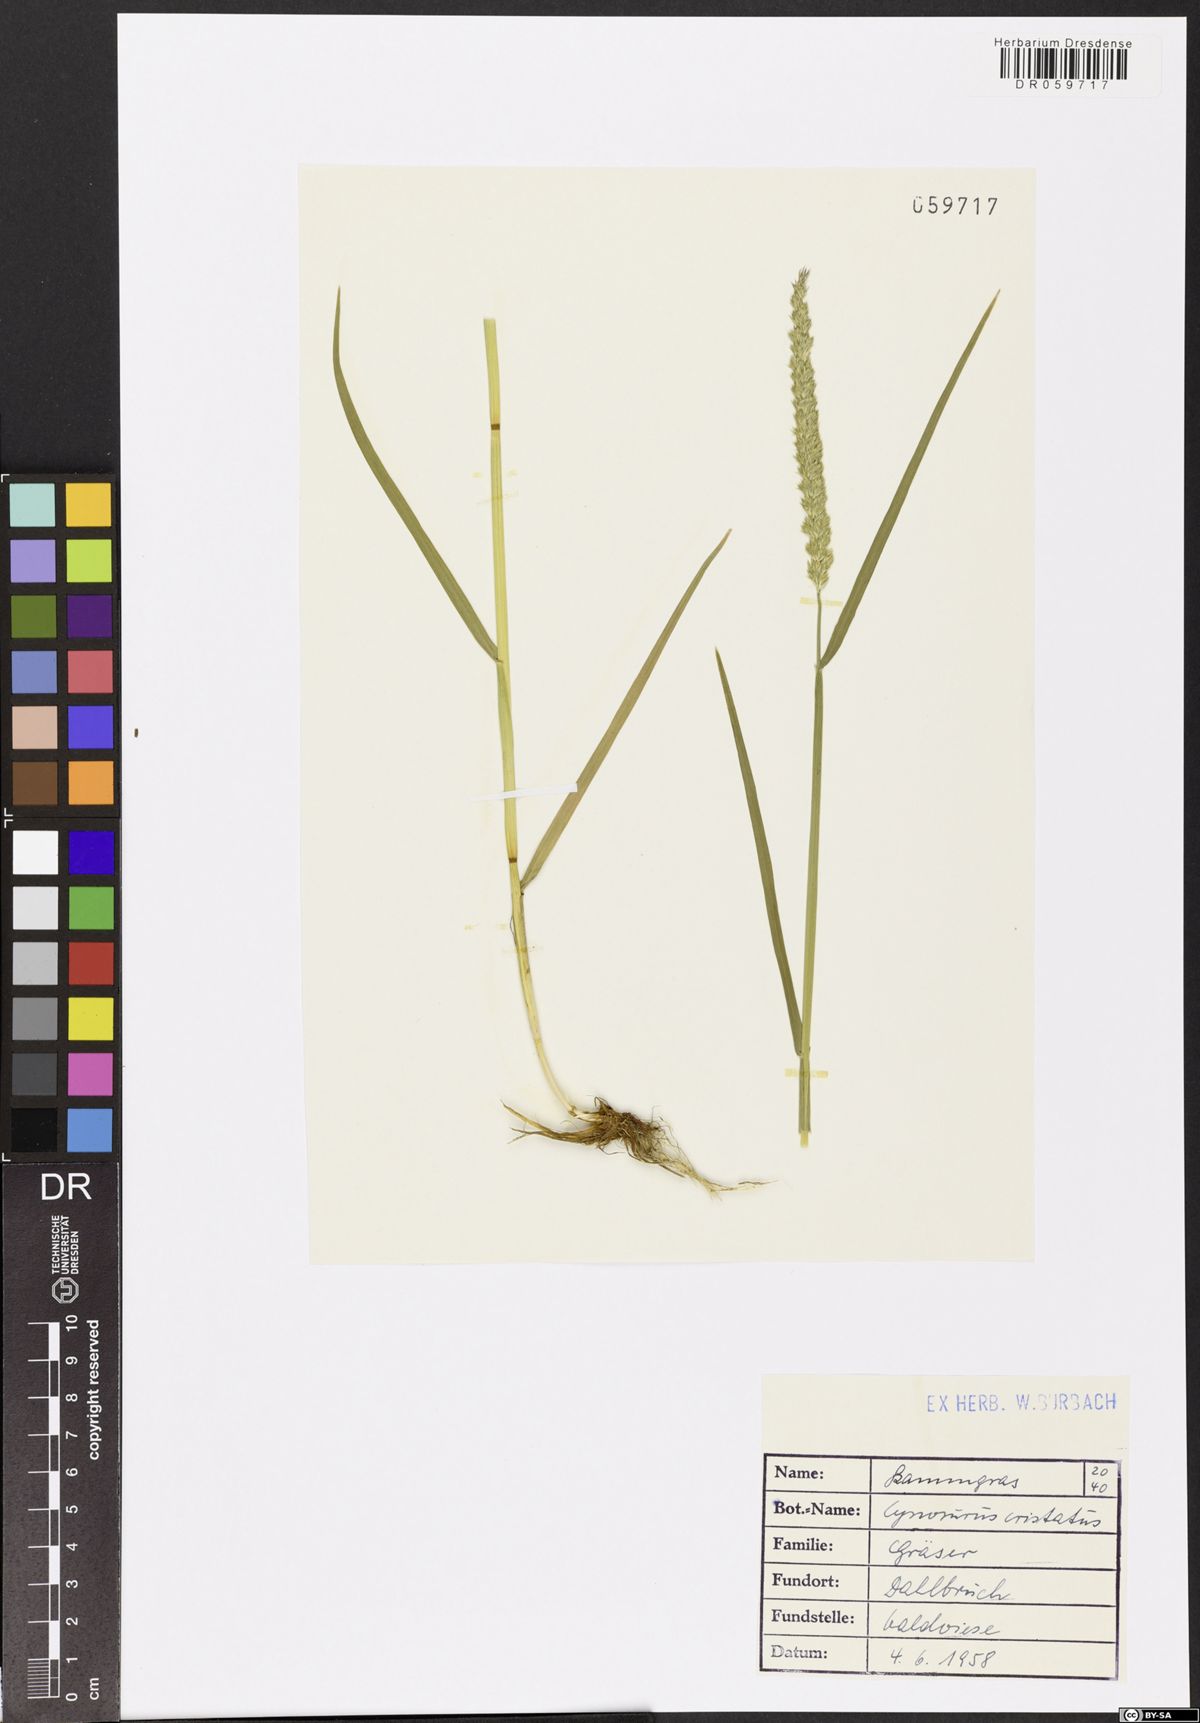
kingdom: Plantae
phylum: Tracheophyta
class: Liliopsida
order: Poales
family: Poaceae
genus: Cynosurus
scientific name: Cynosurus cristatus
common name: Crested dog's-tail
